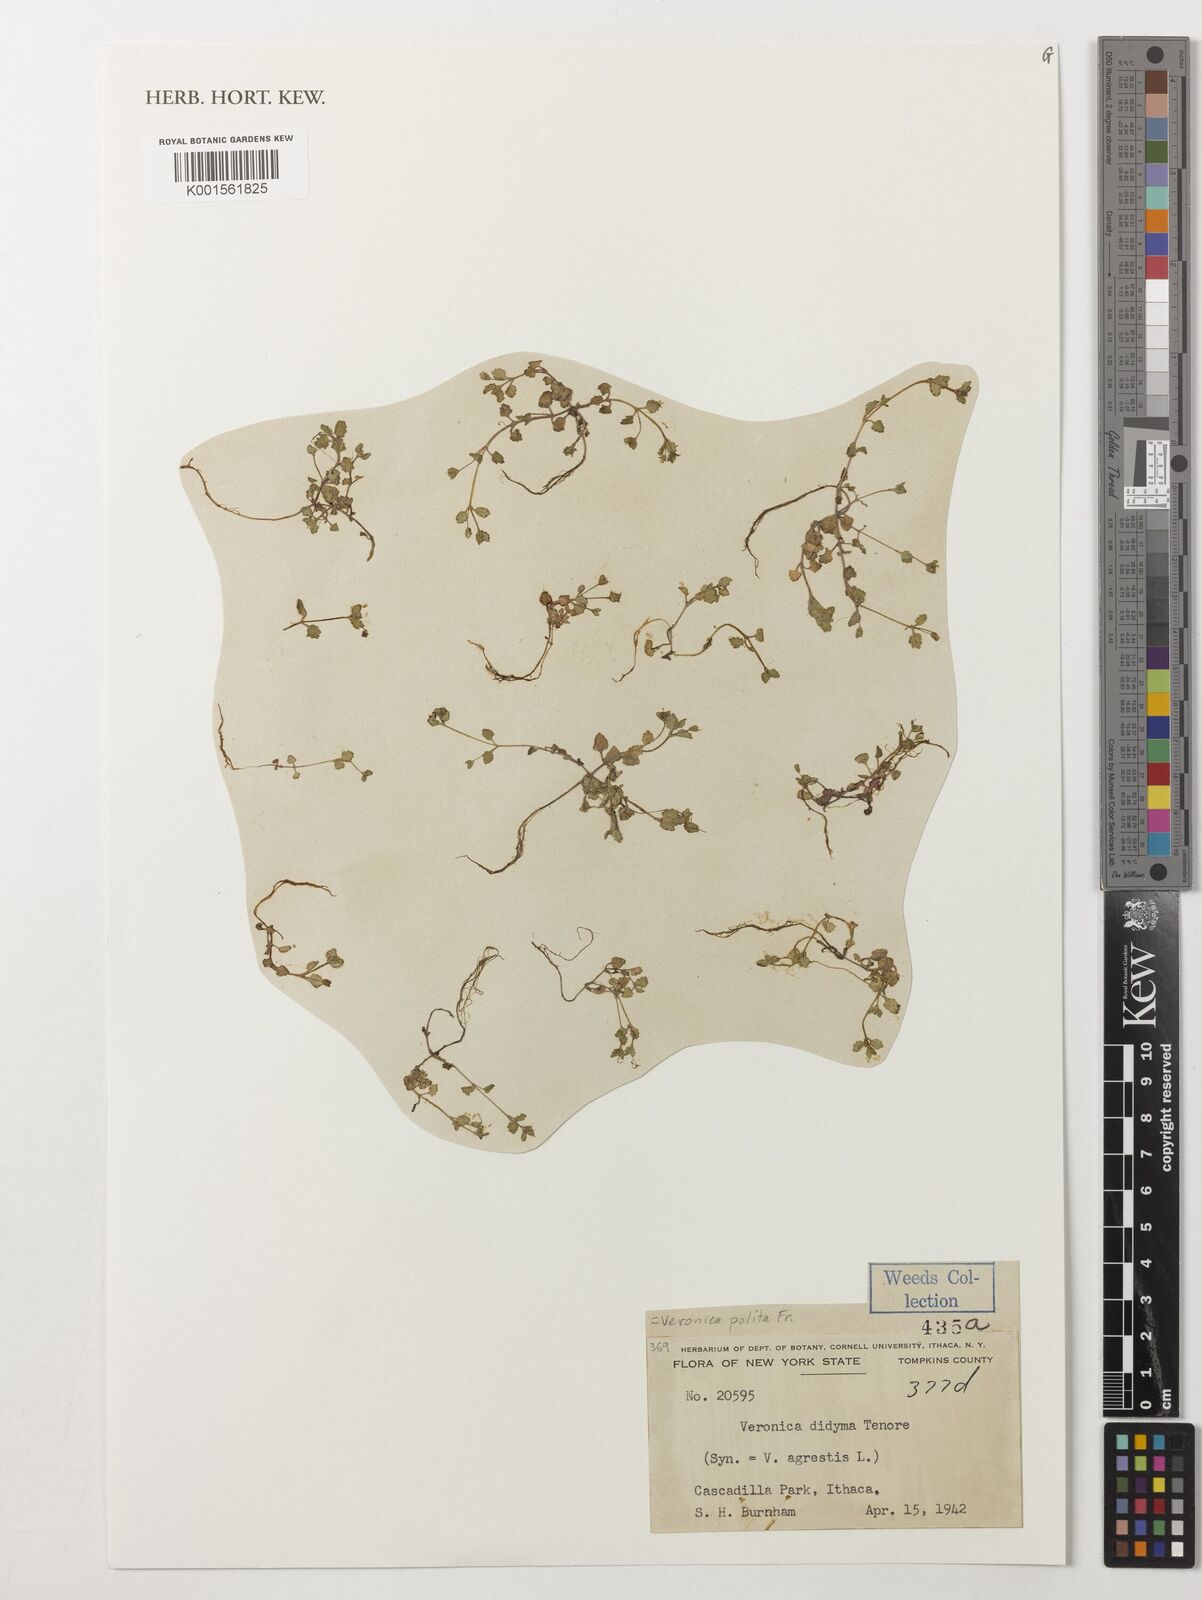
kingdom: Plantae
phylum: Tracheophyta
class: Magnoliopsida
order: Lamiales
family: Plantaginaceae
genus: Veronica
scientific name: Veronica polita
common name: Grey field-speedwell
